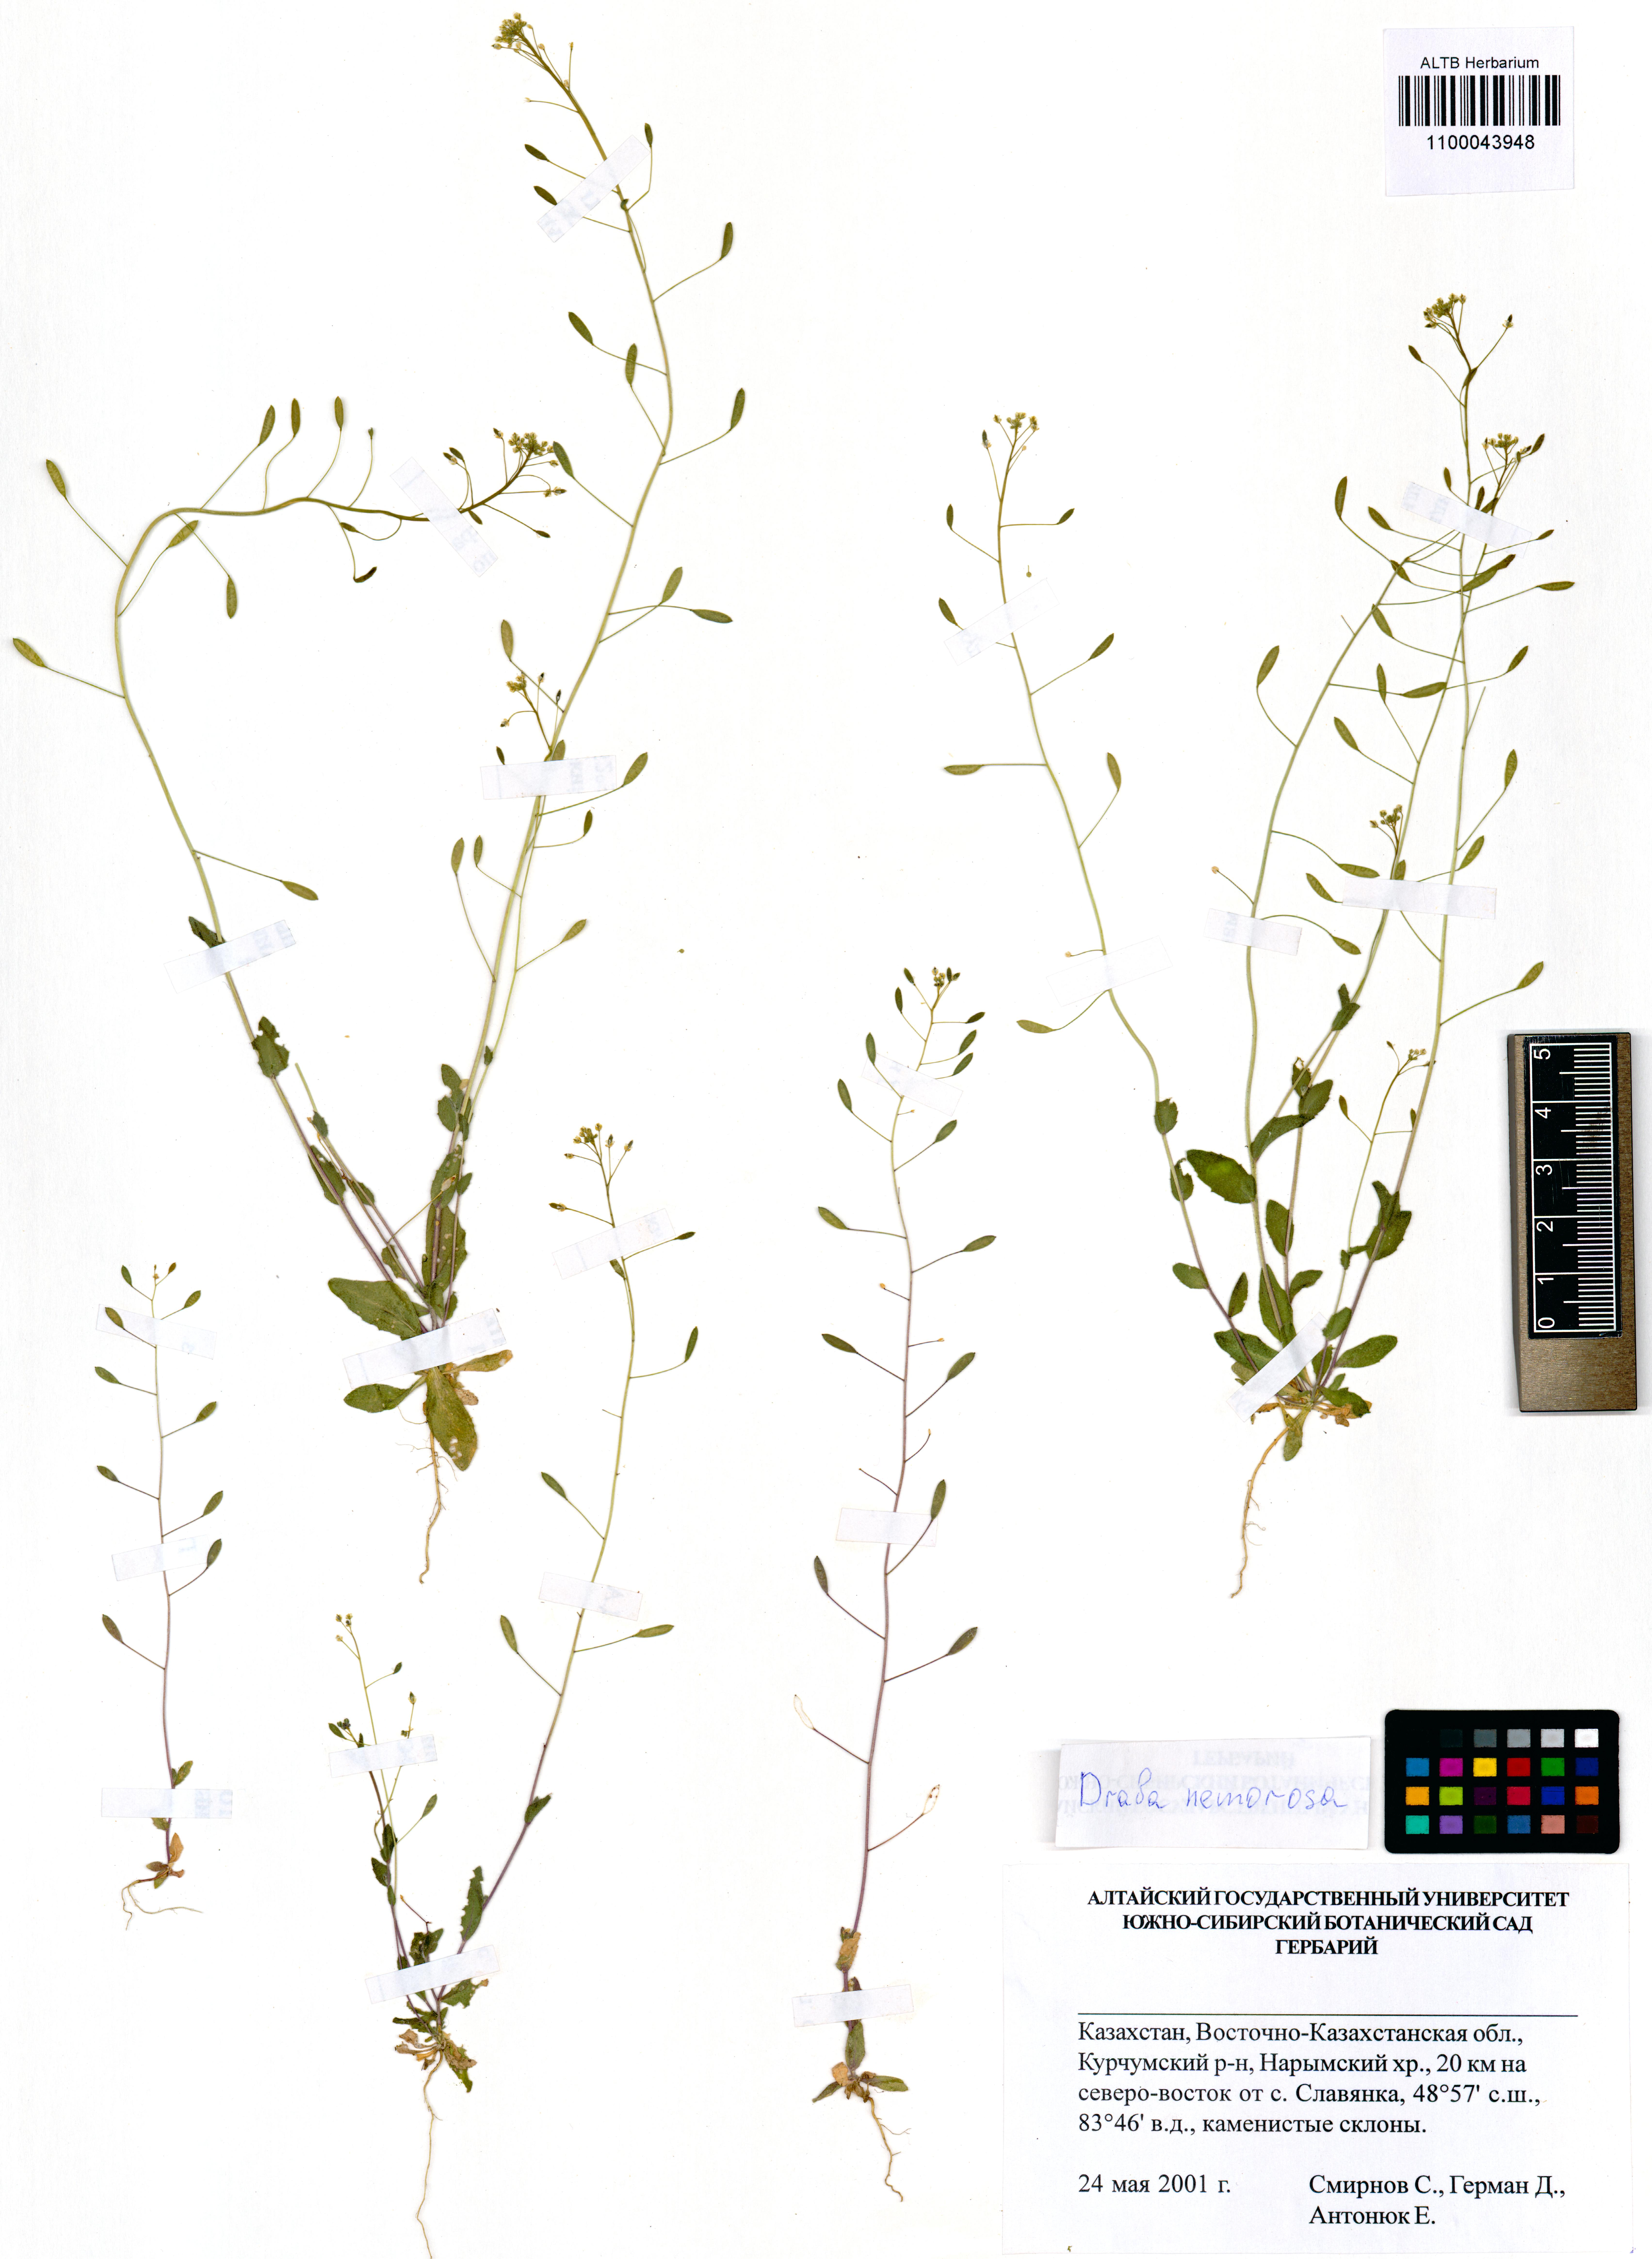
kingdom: Plantae
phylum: Tracheophyta
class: Magnoliopsida
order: Brassicales
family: Brassicaceae
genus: Draba
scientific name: Draba nemorosa
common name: Wood whitlow-grass
